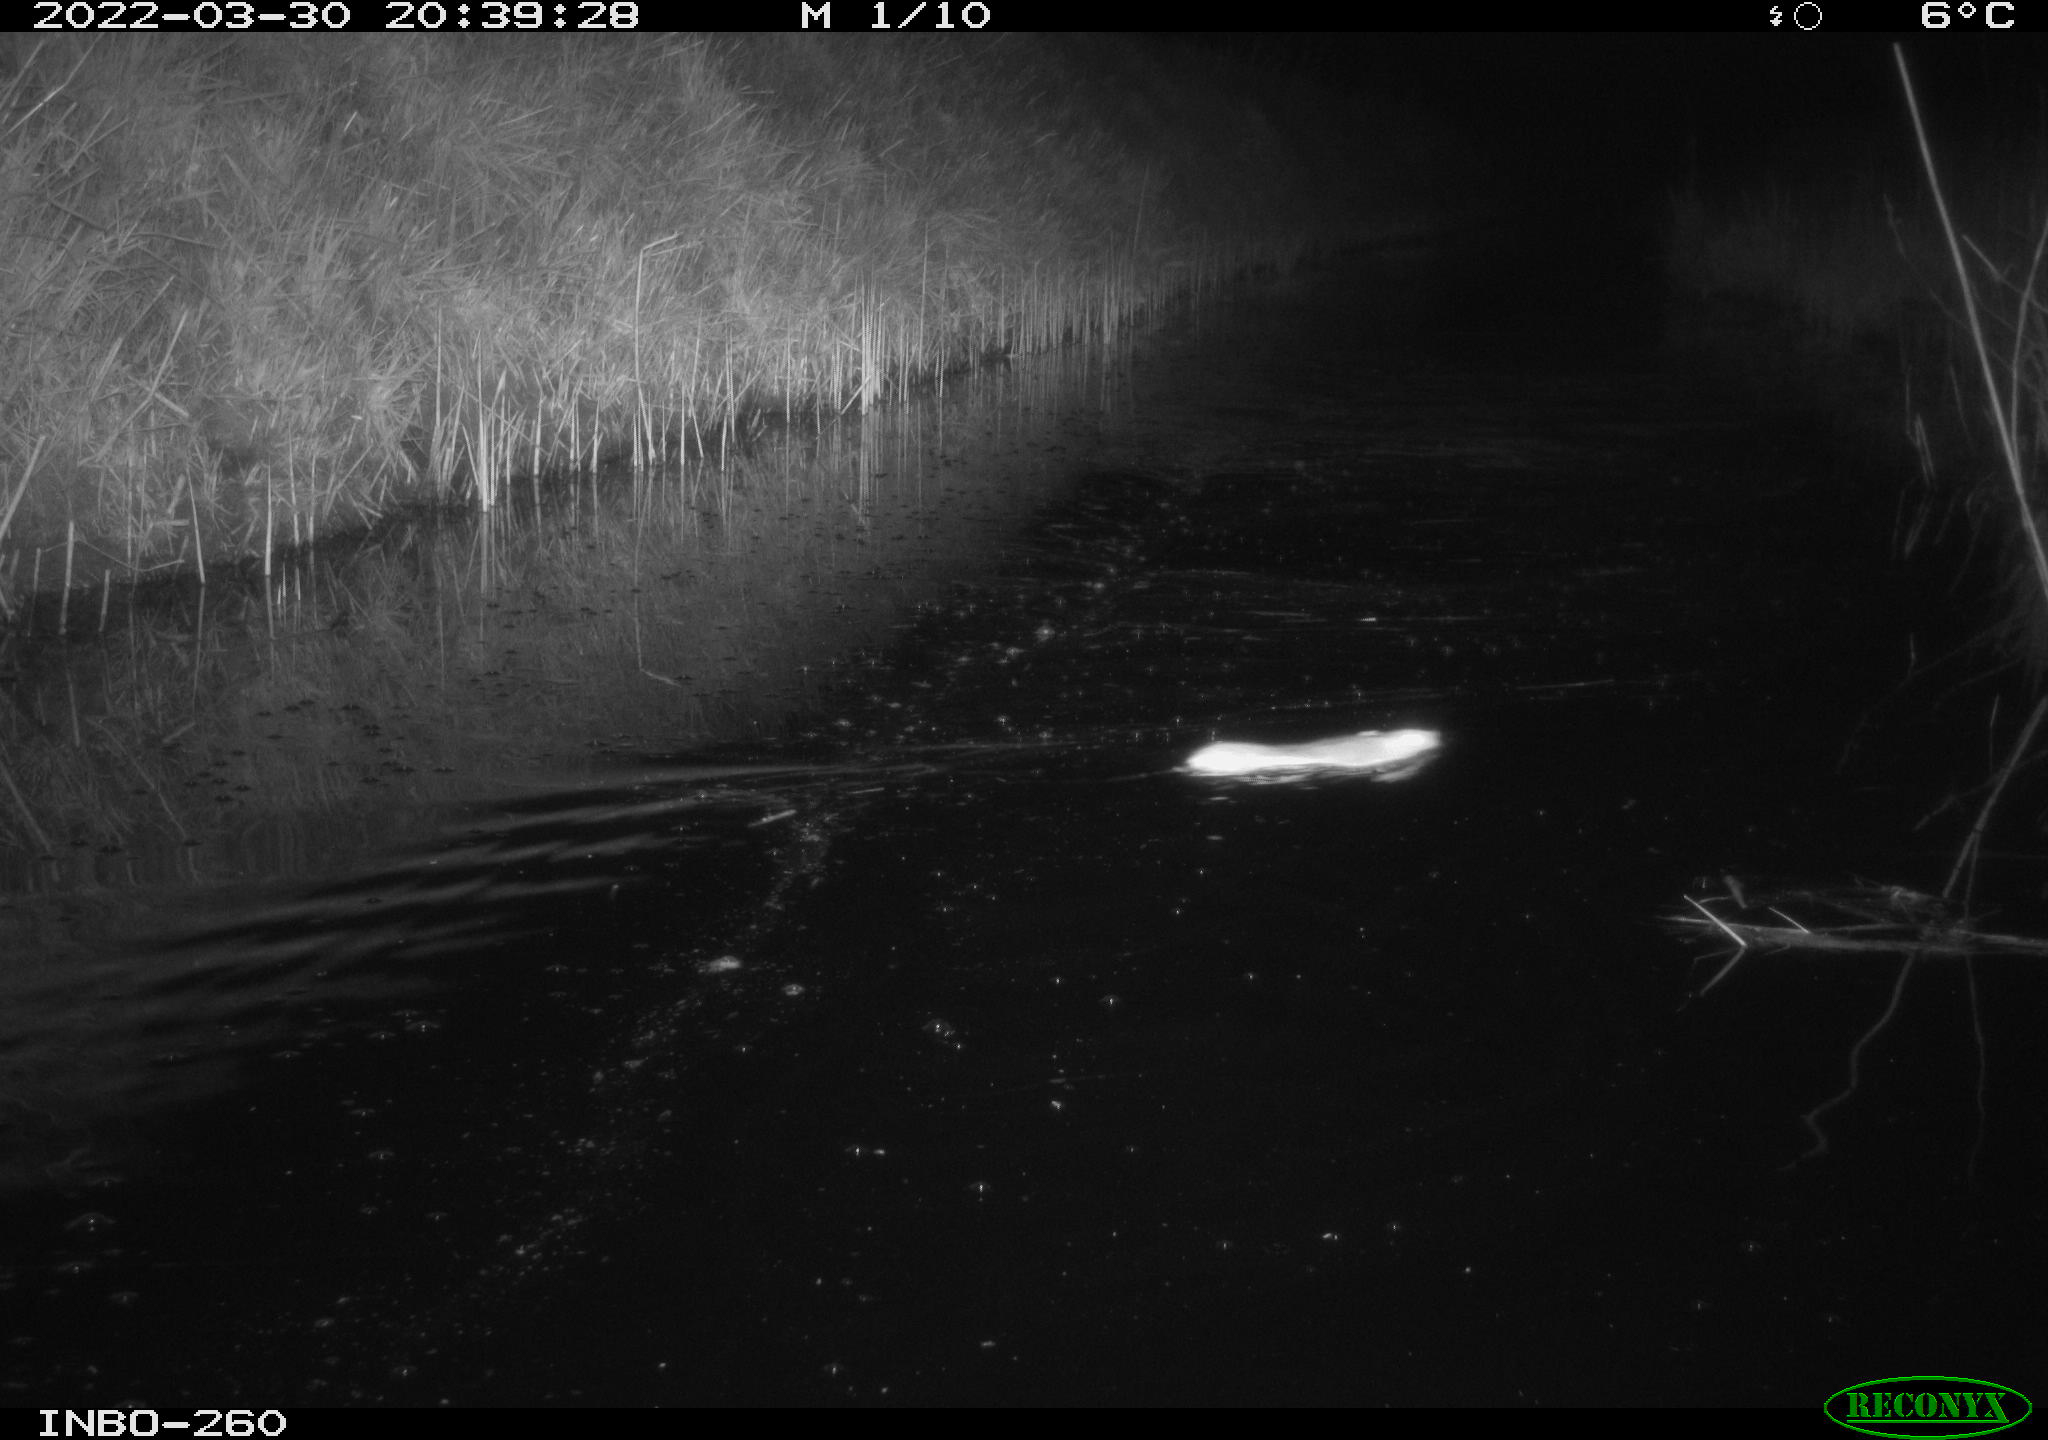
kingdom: Animalia
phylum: Chordata
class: Mammalia
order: Rodentia
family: Muridae
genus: Rattus
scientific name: Rattus norvegicus
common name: Brown rat
